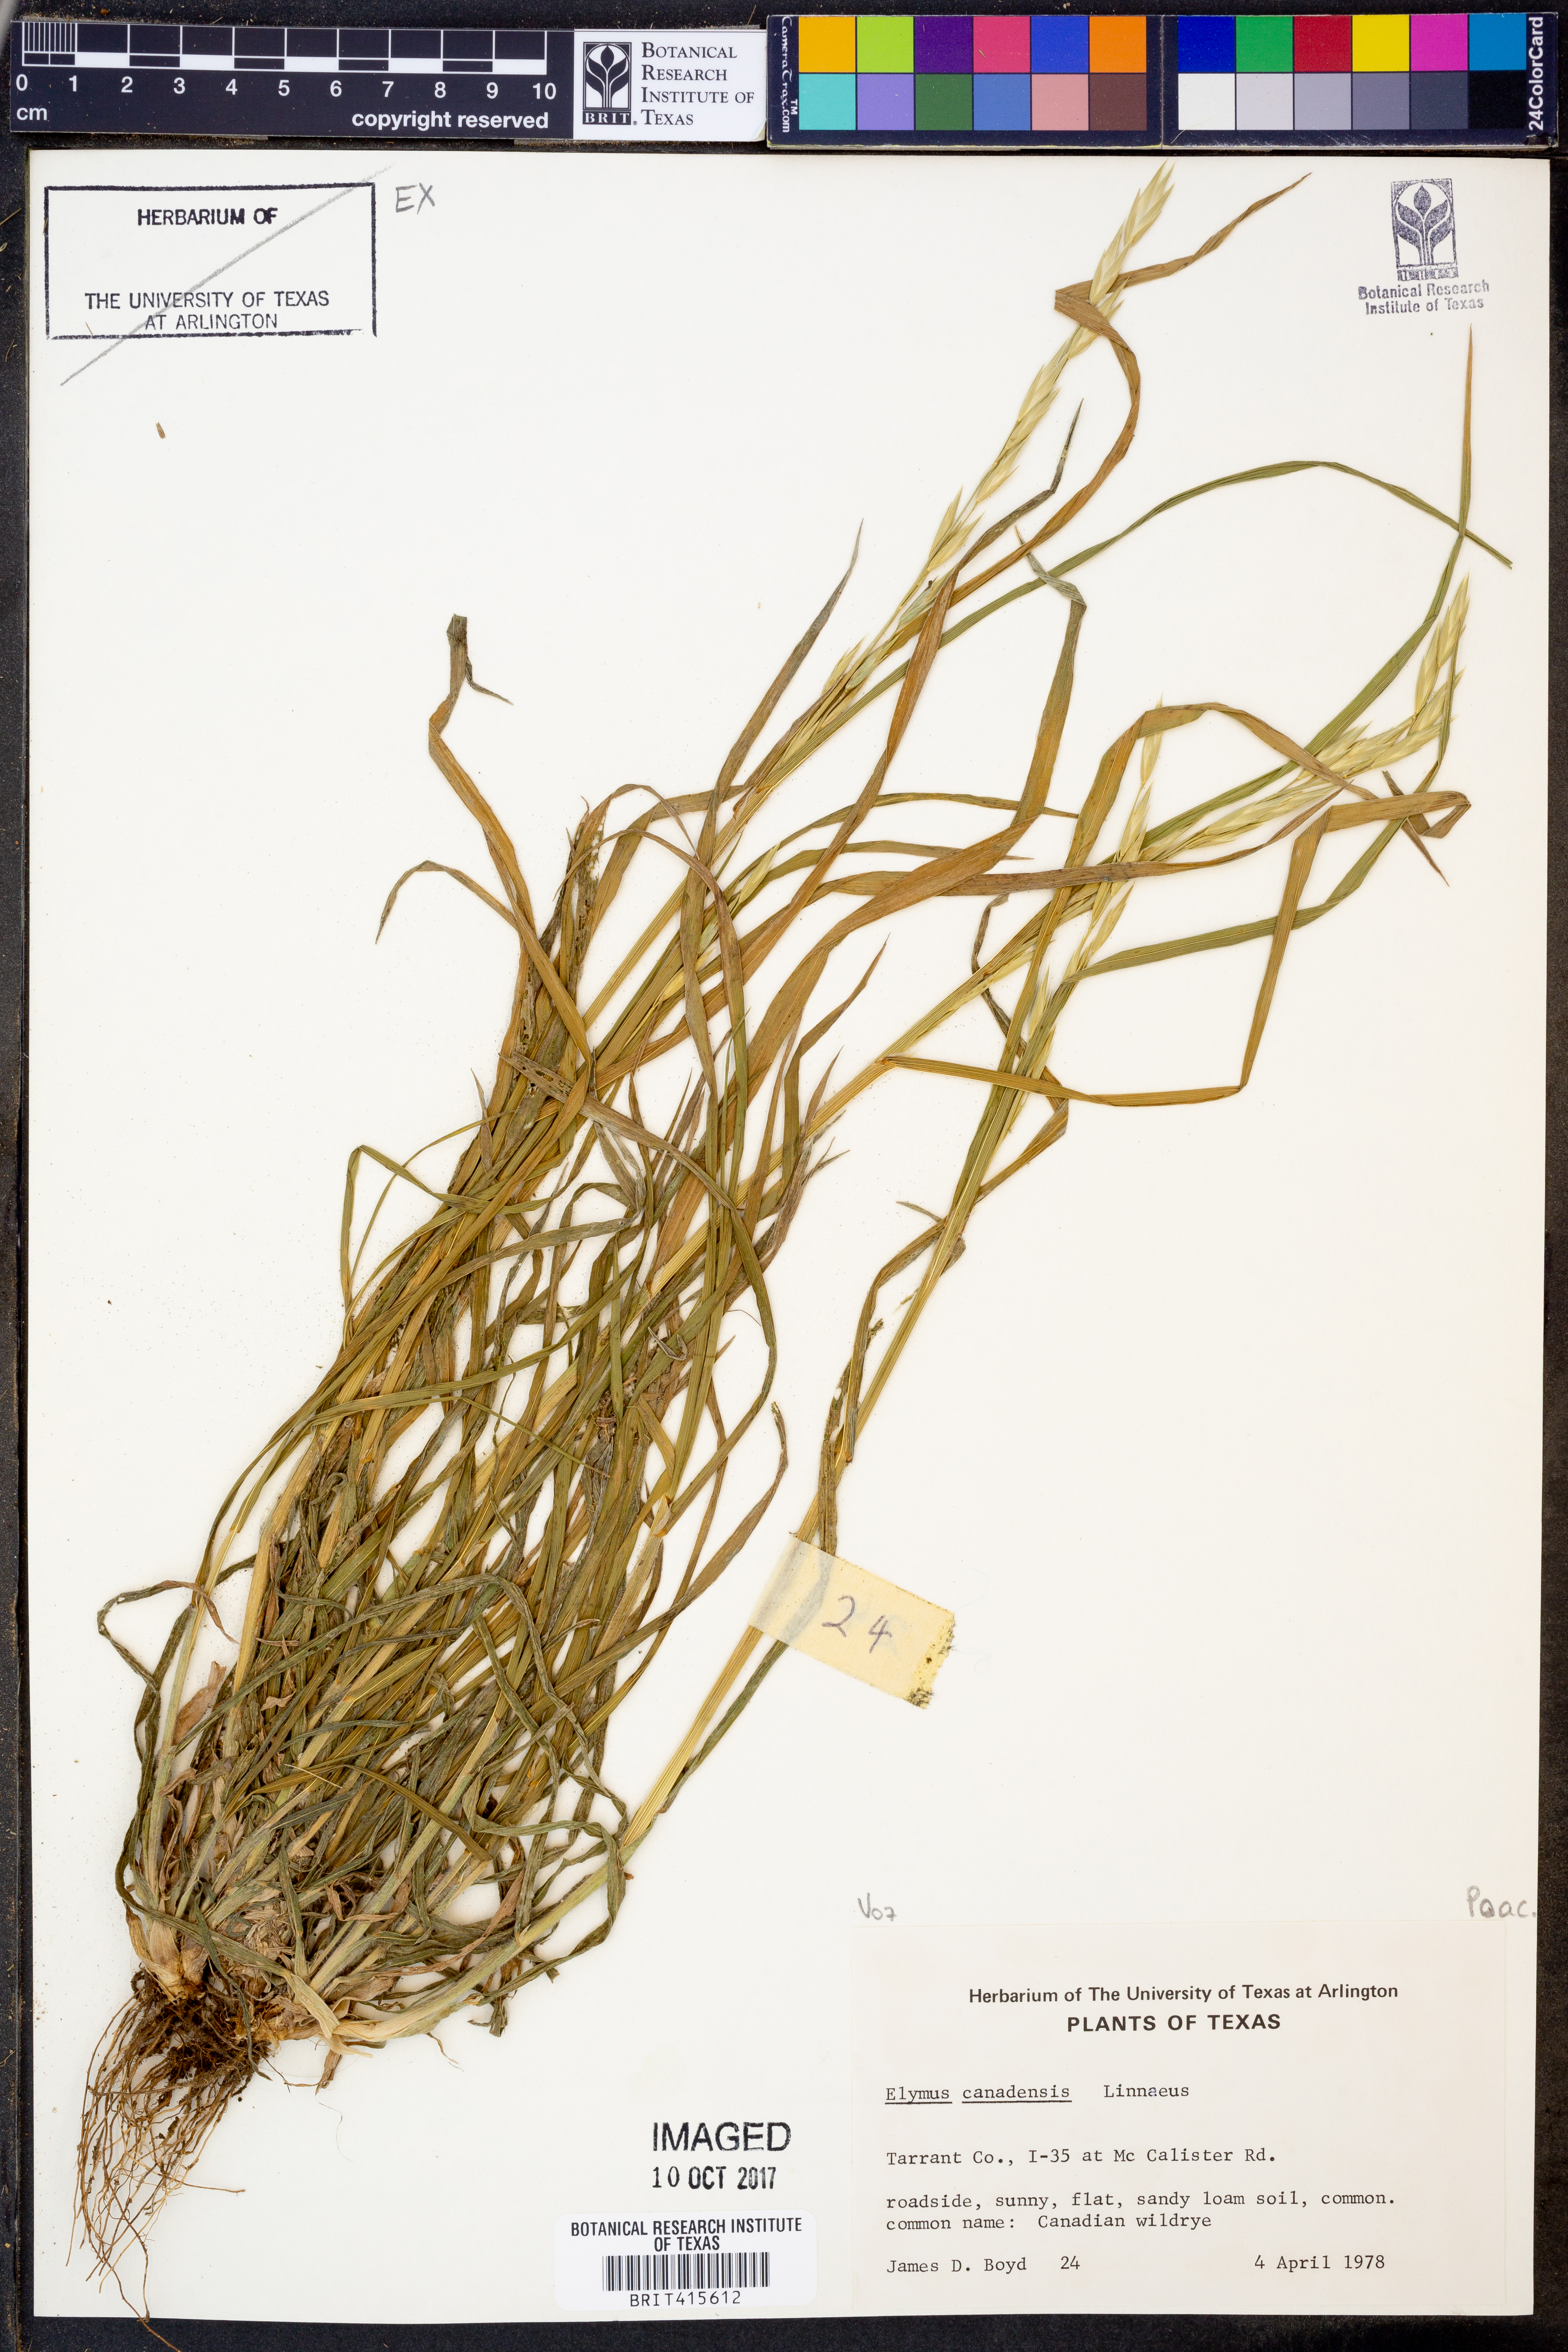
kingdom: Plantae
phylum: Tracheophyta
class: Liliopsida
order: Poales
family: Poaceae
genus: Elymus
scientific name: Elymus canadensis
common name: Canada wild rye
